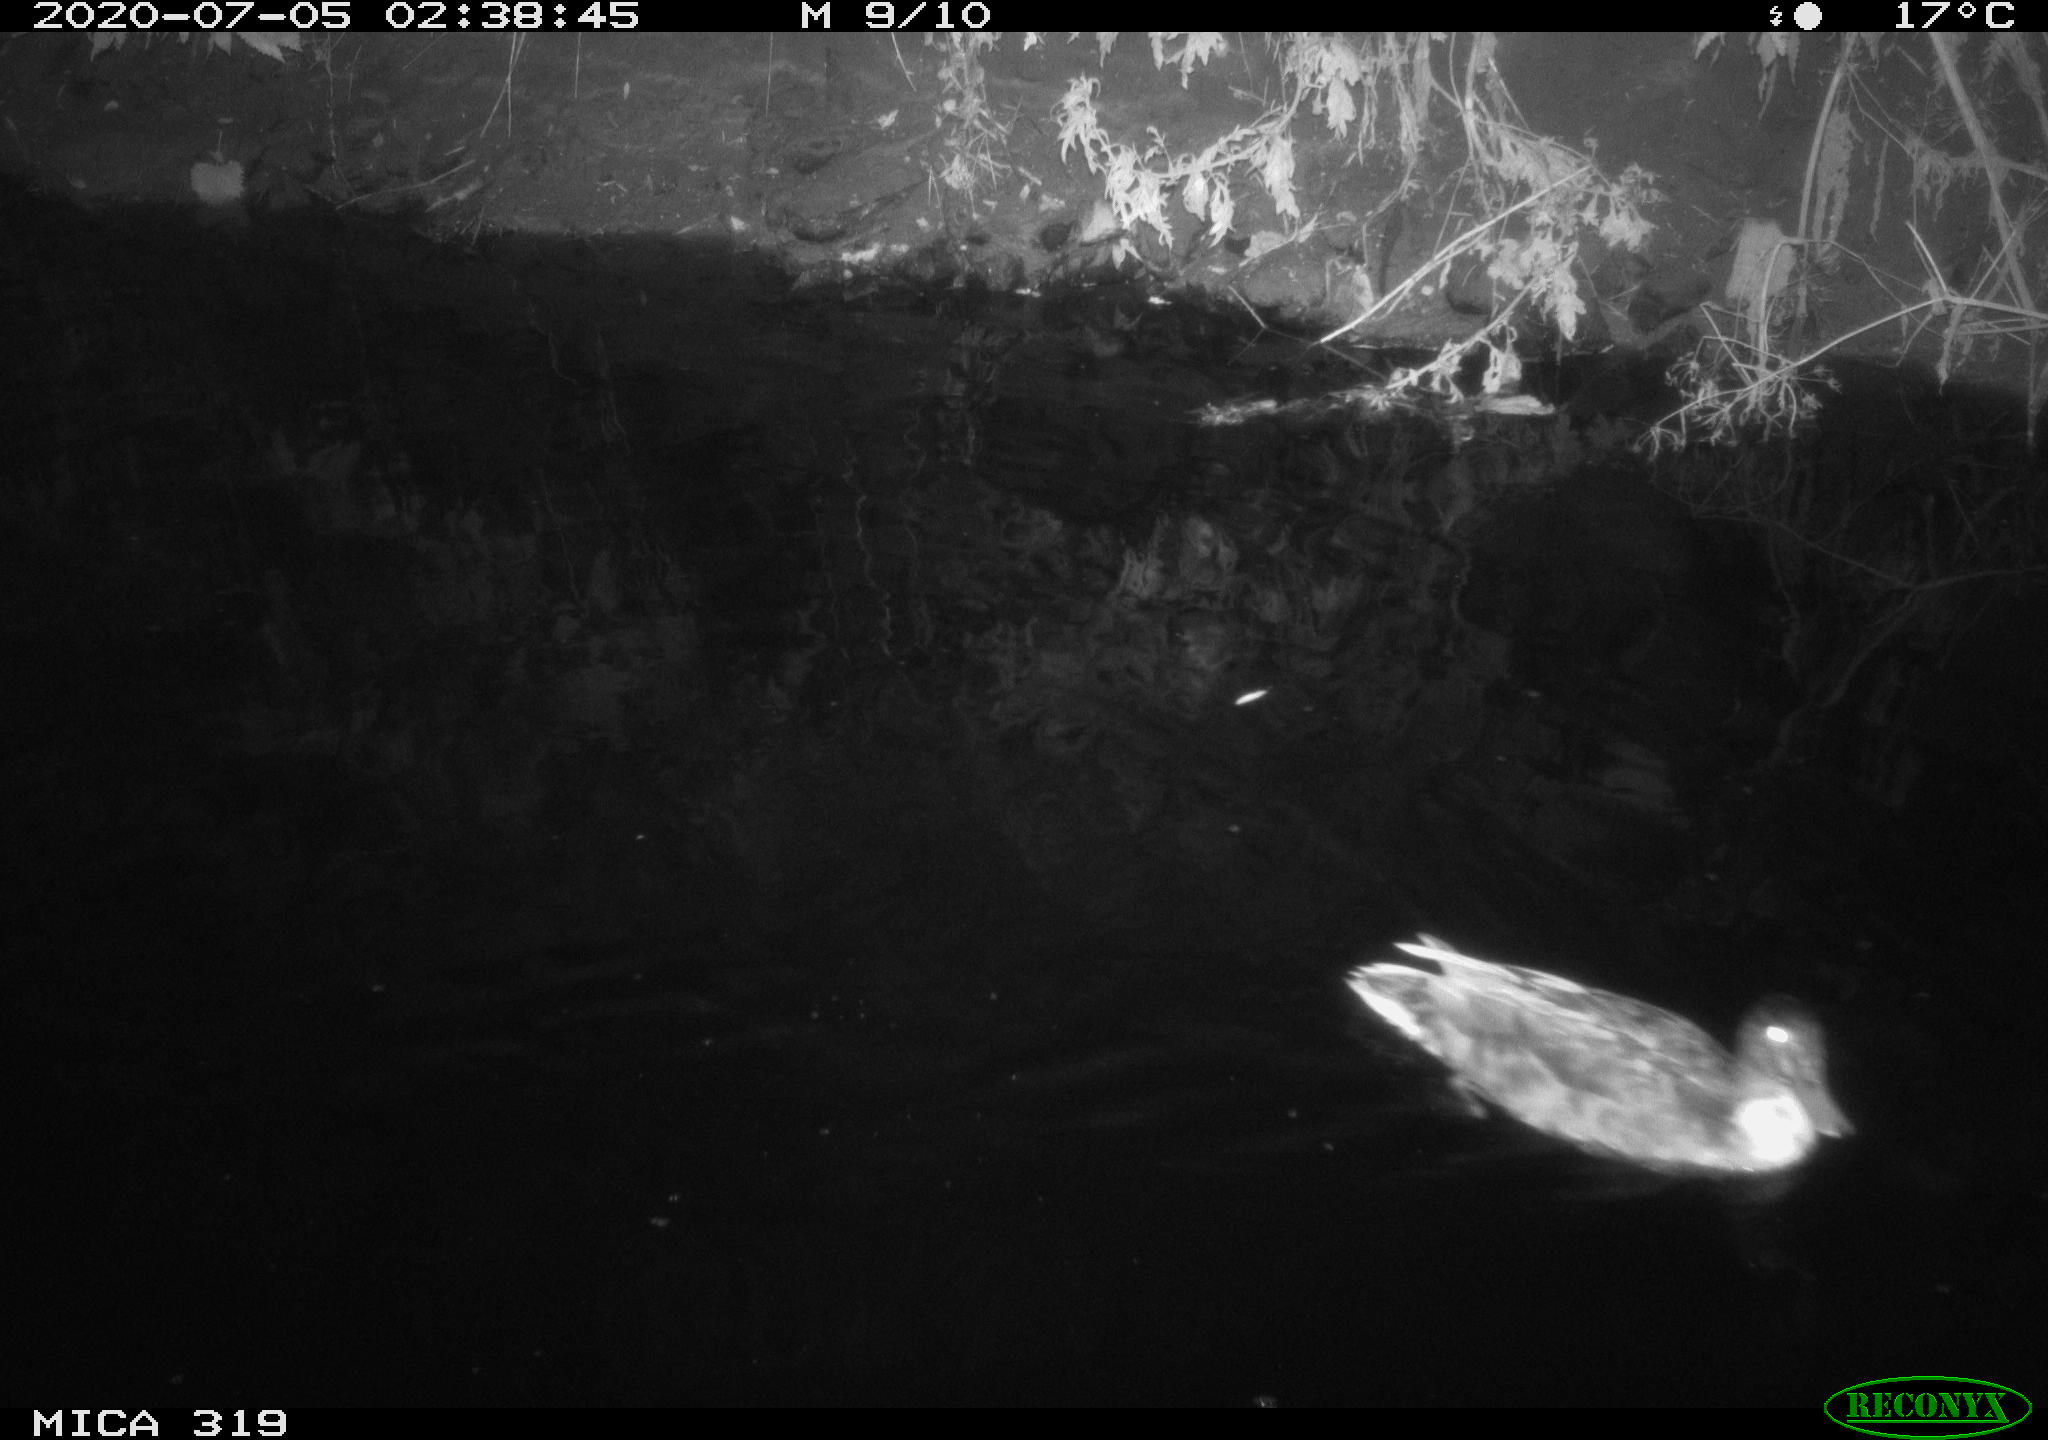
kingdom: Animalia
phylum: Chordata
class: Aves
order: Anseriformes
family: Anatidae
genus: Anas
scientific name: Anas platyrhynchos
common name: Mallard
